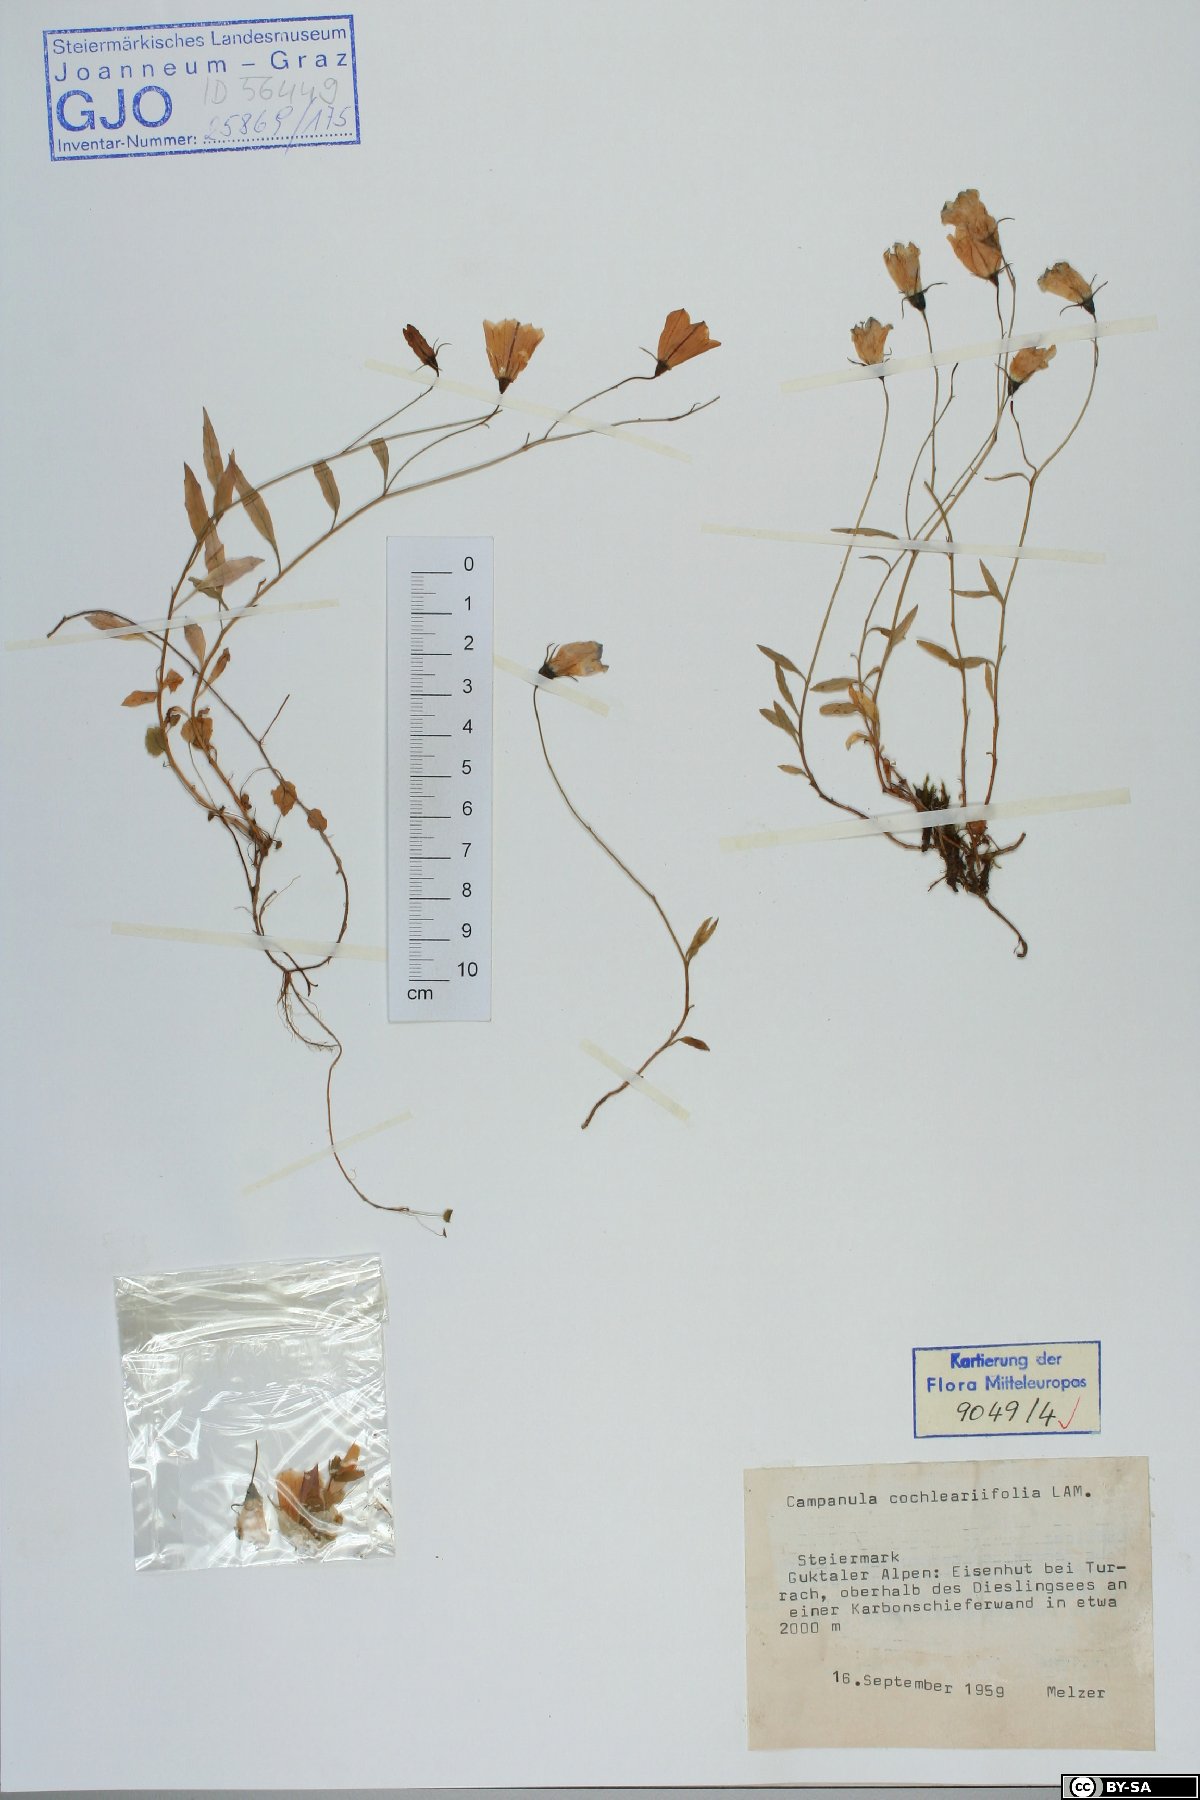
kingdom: Plantae
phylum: Tracheophyta
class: Magnoliopsida
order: Asterales
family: Campanulaceae
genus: Campanula
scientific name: Campanula cochleariifolia
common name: Fairies'-thimbles
